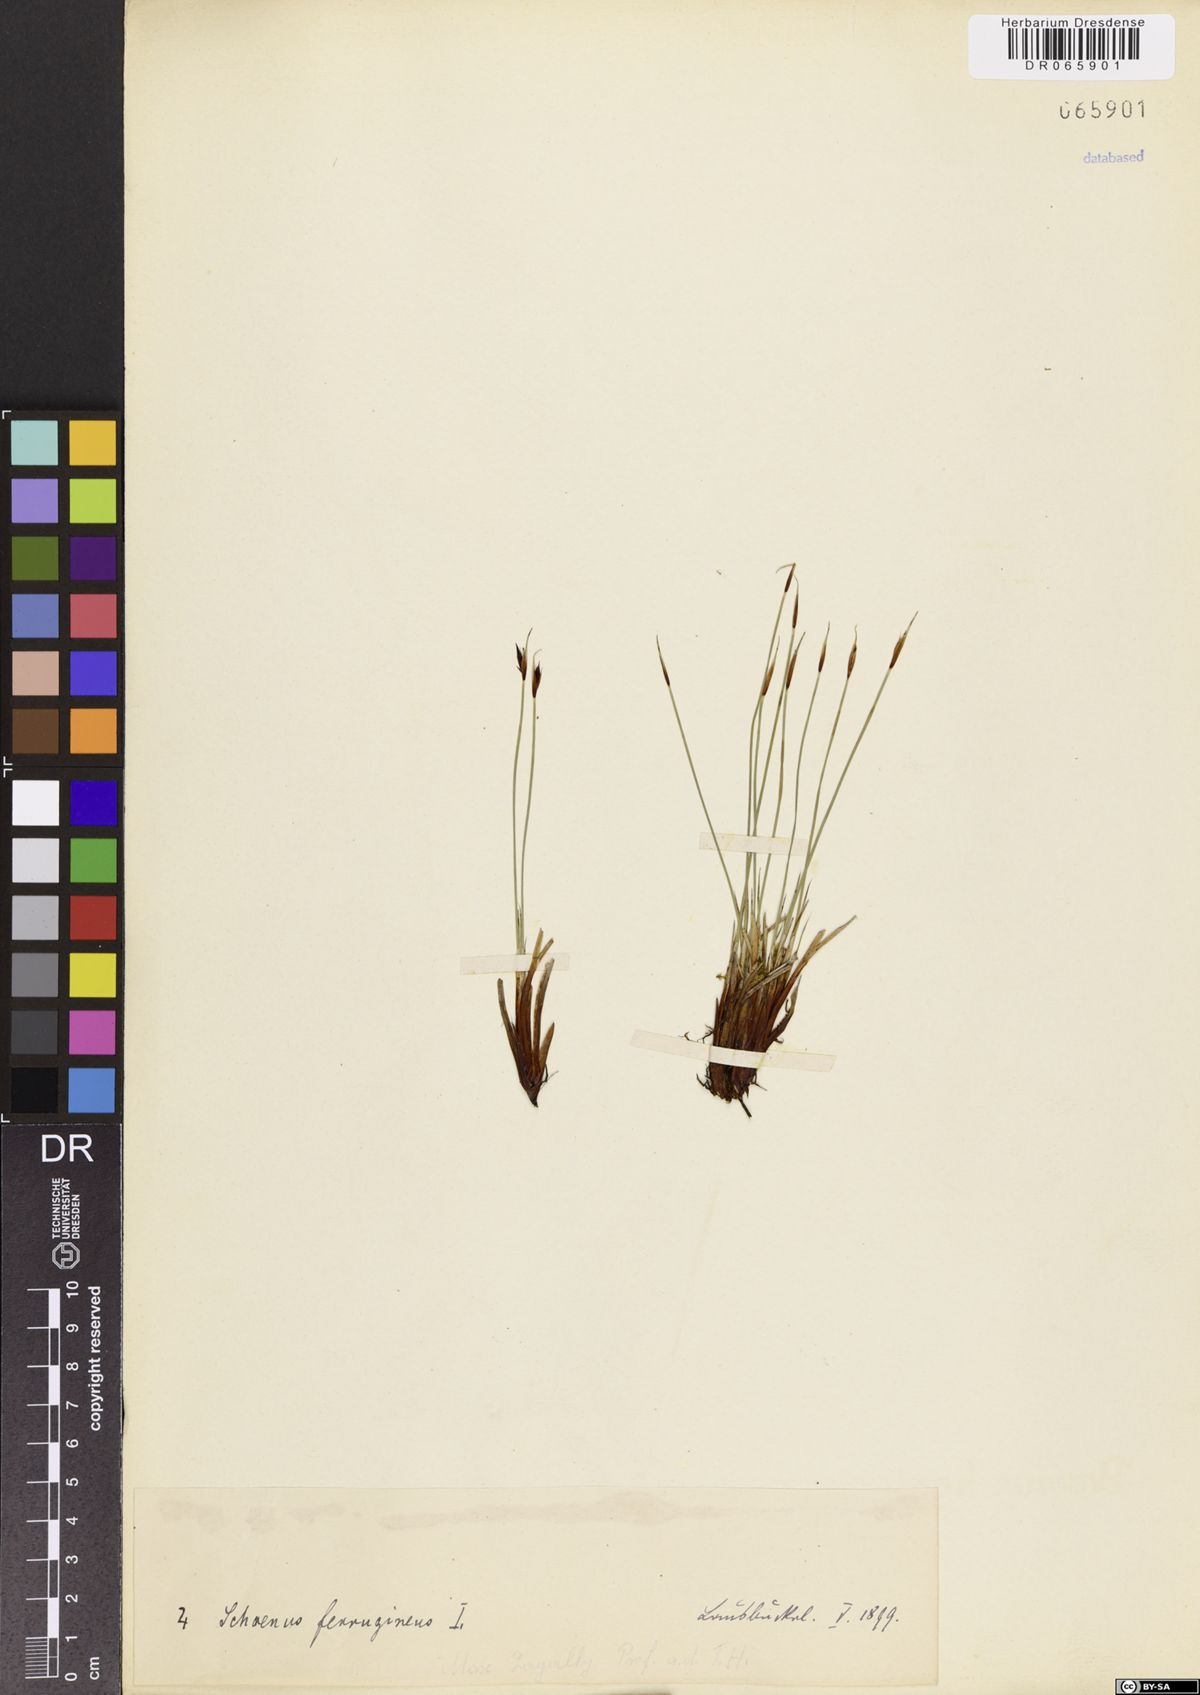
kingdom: Plantae
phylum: Tracheophyta
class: Liliopsida
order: Poales
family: Cyperaceae
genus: Schoenus
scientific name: Schoenus ferrugineus
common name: Brown bog-rush
